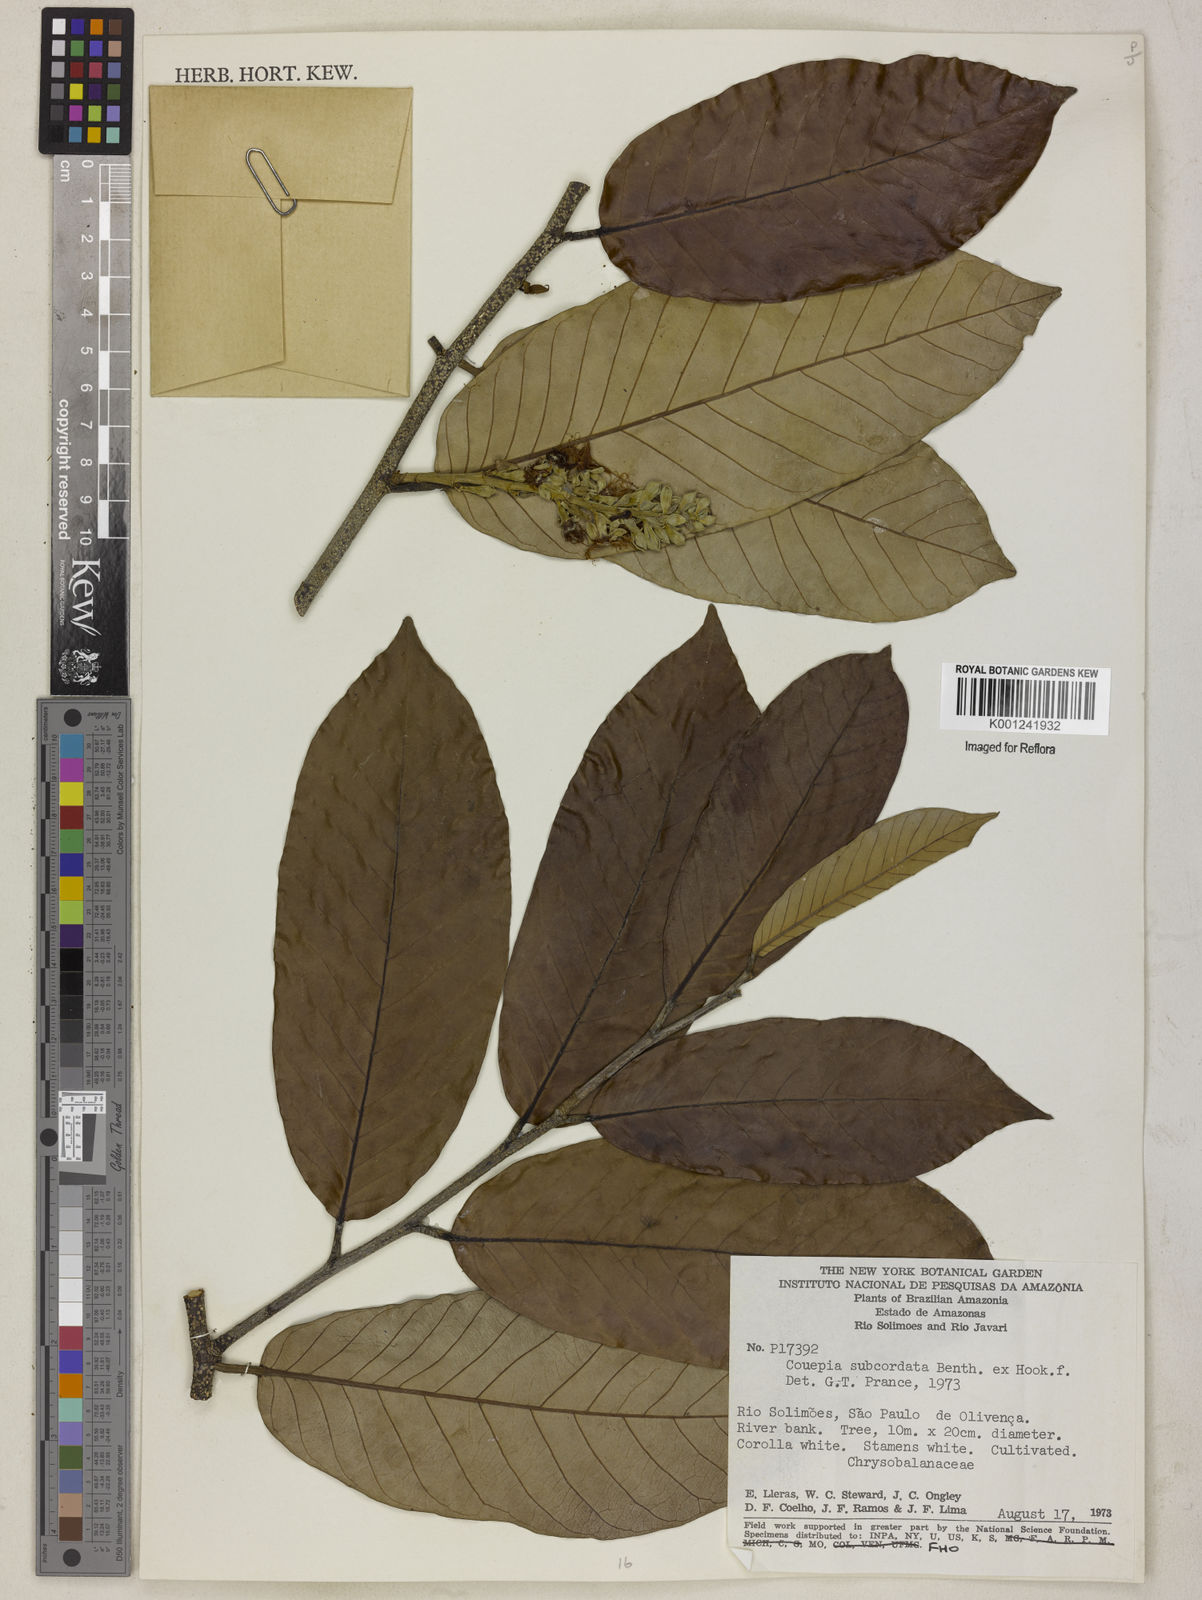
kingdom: Plantae
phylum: Tracheophyta
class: Magnoliopsida
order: Malpighiales
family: Chrysobalanaceae
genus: Couepia
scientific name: Couepia subcordata
